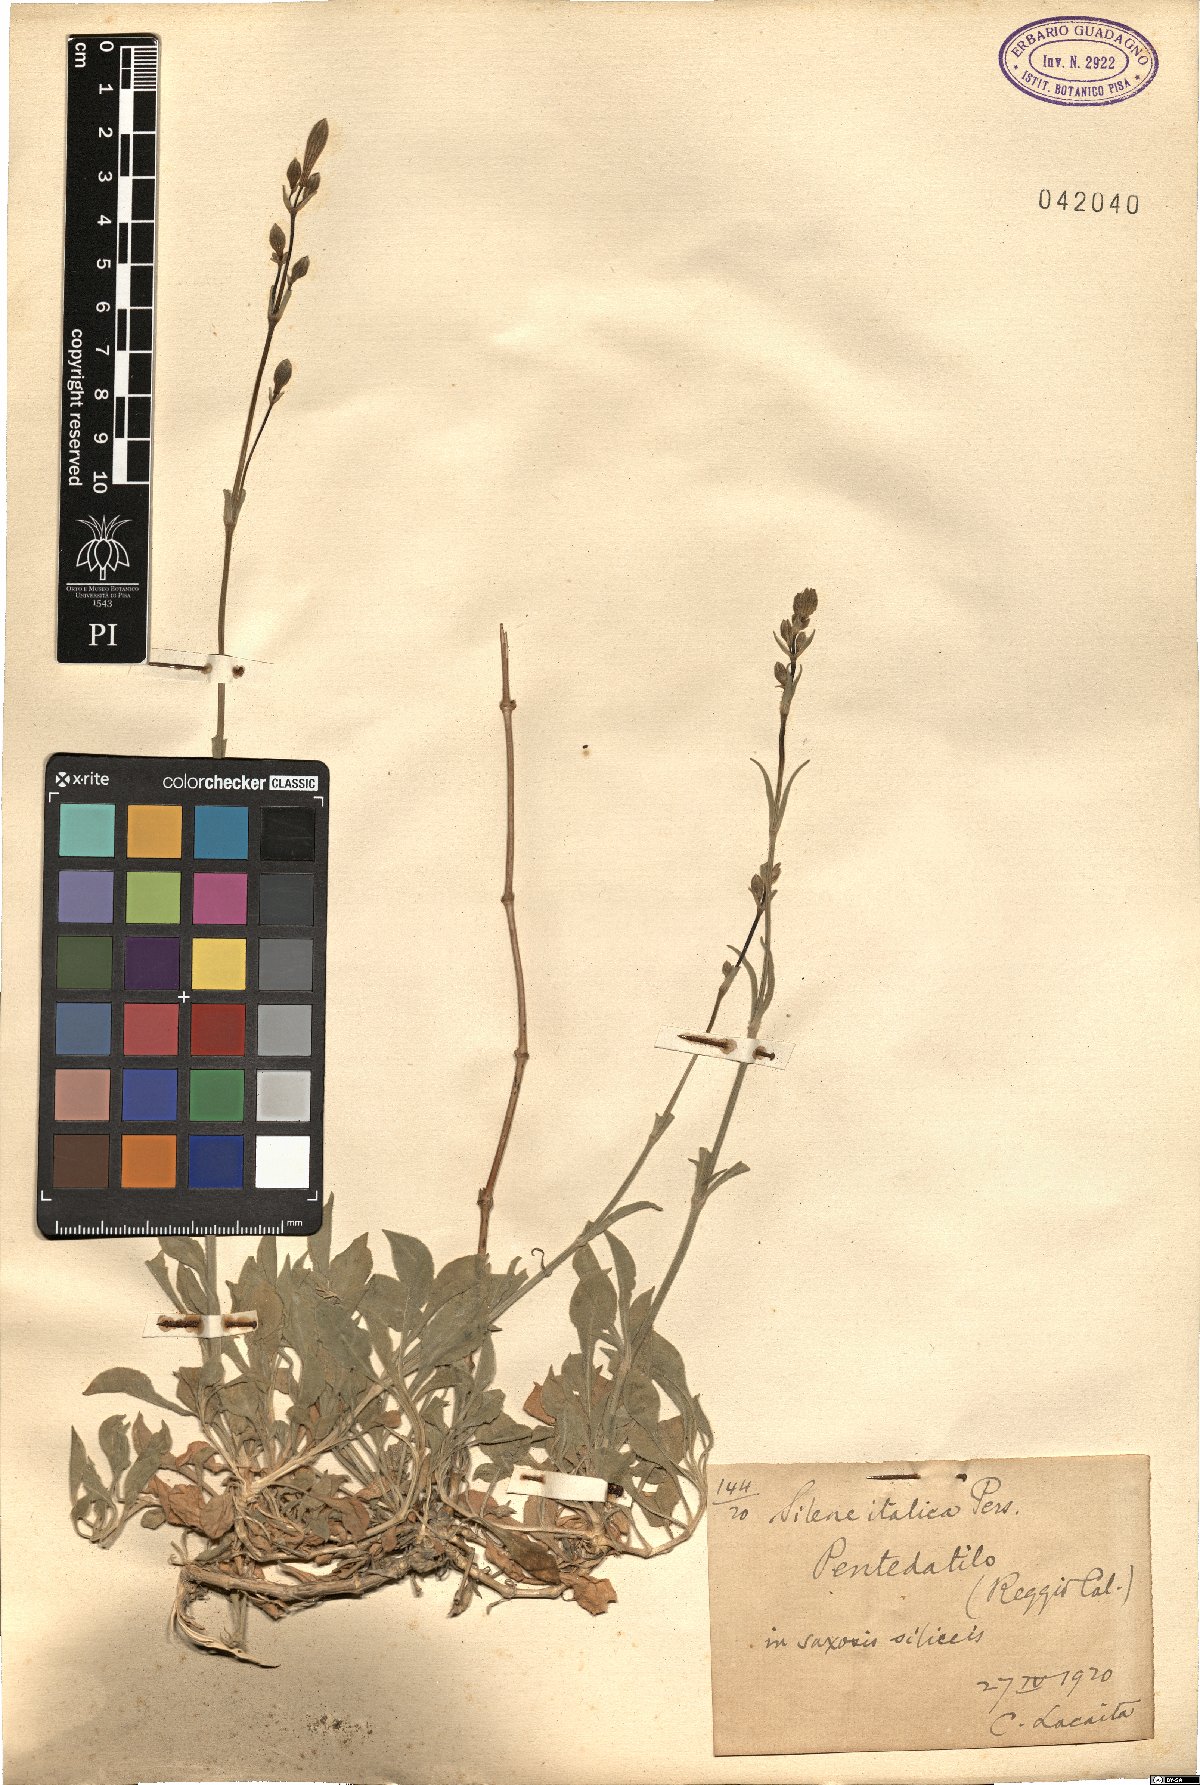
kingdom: Plantae
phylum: Tracheophyta
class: Magnoliopsida
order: Caryophyllales
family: Caryophyllaceae
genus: Silene
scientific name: Silene italica
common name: Italian catchfly
